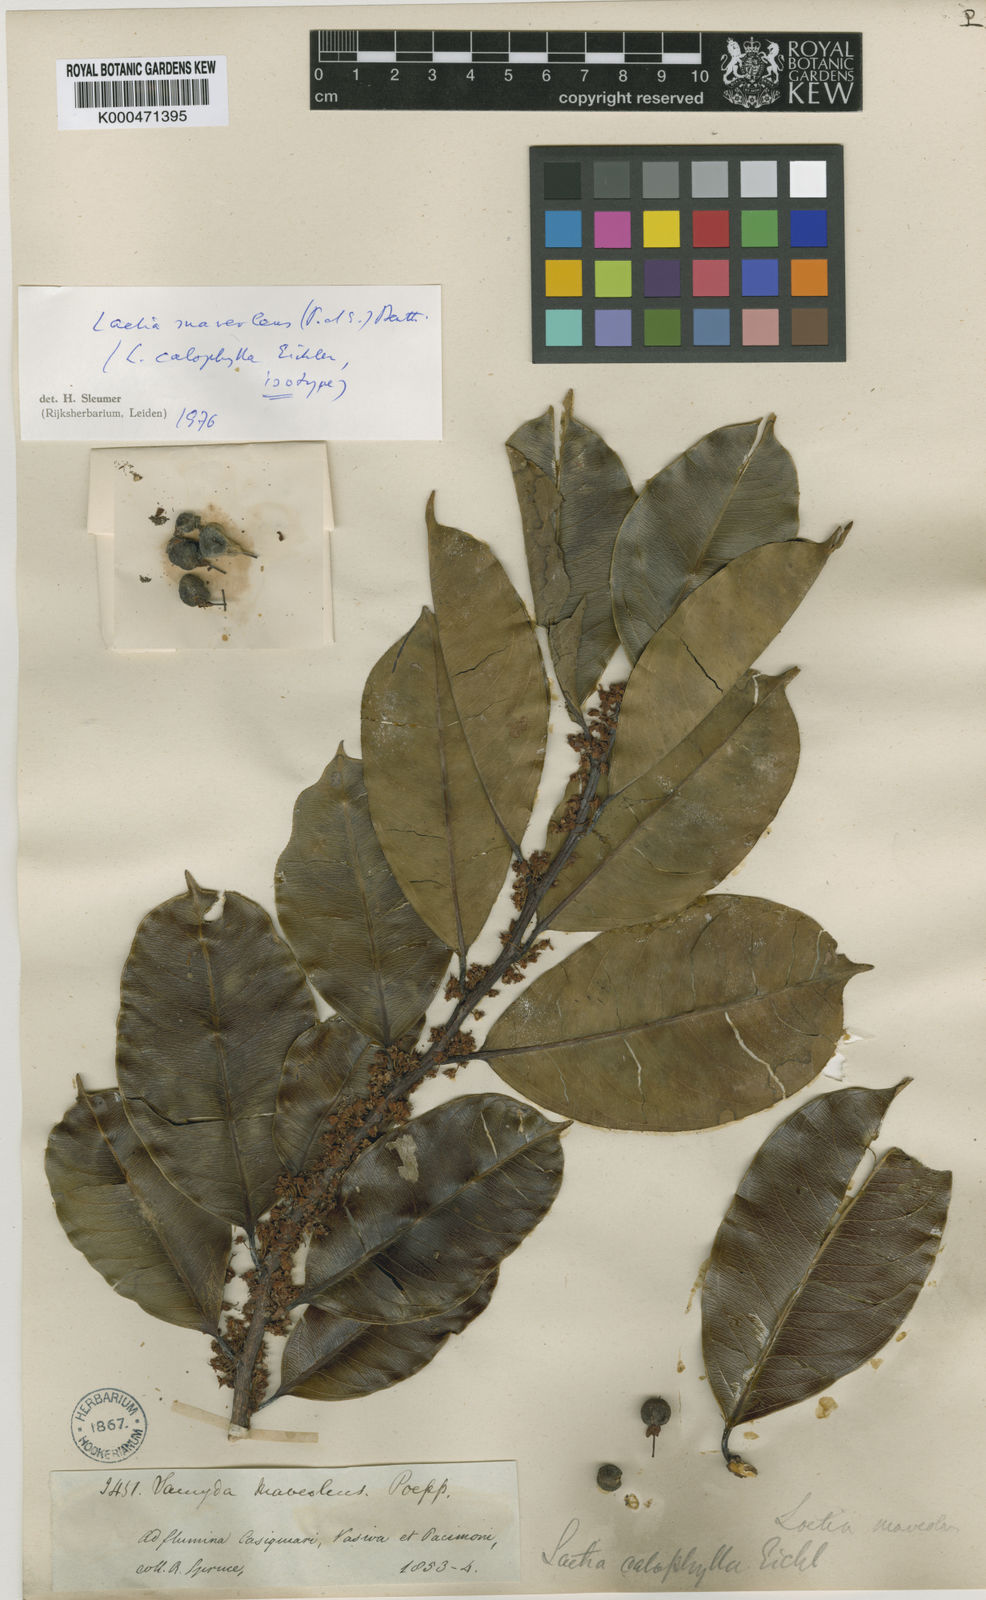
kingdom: Plantae
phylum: Tracheophyta
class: Magnoliopsida
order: Malpighiales
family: Salicaceae
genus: Casearia
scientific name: Casearia suaveolens
